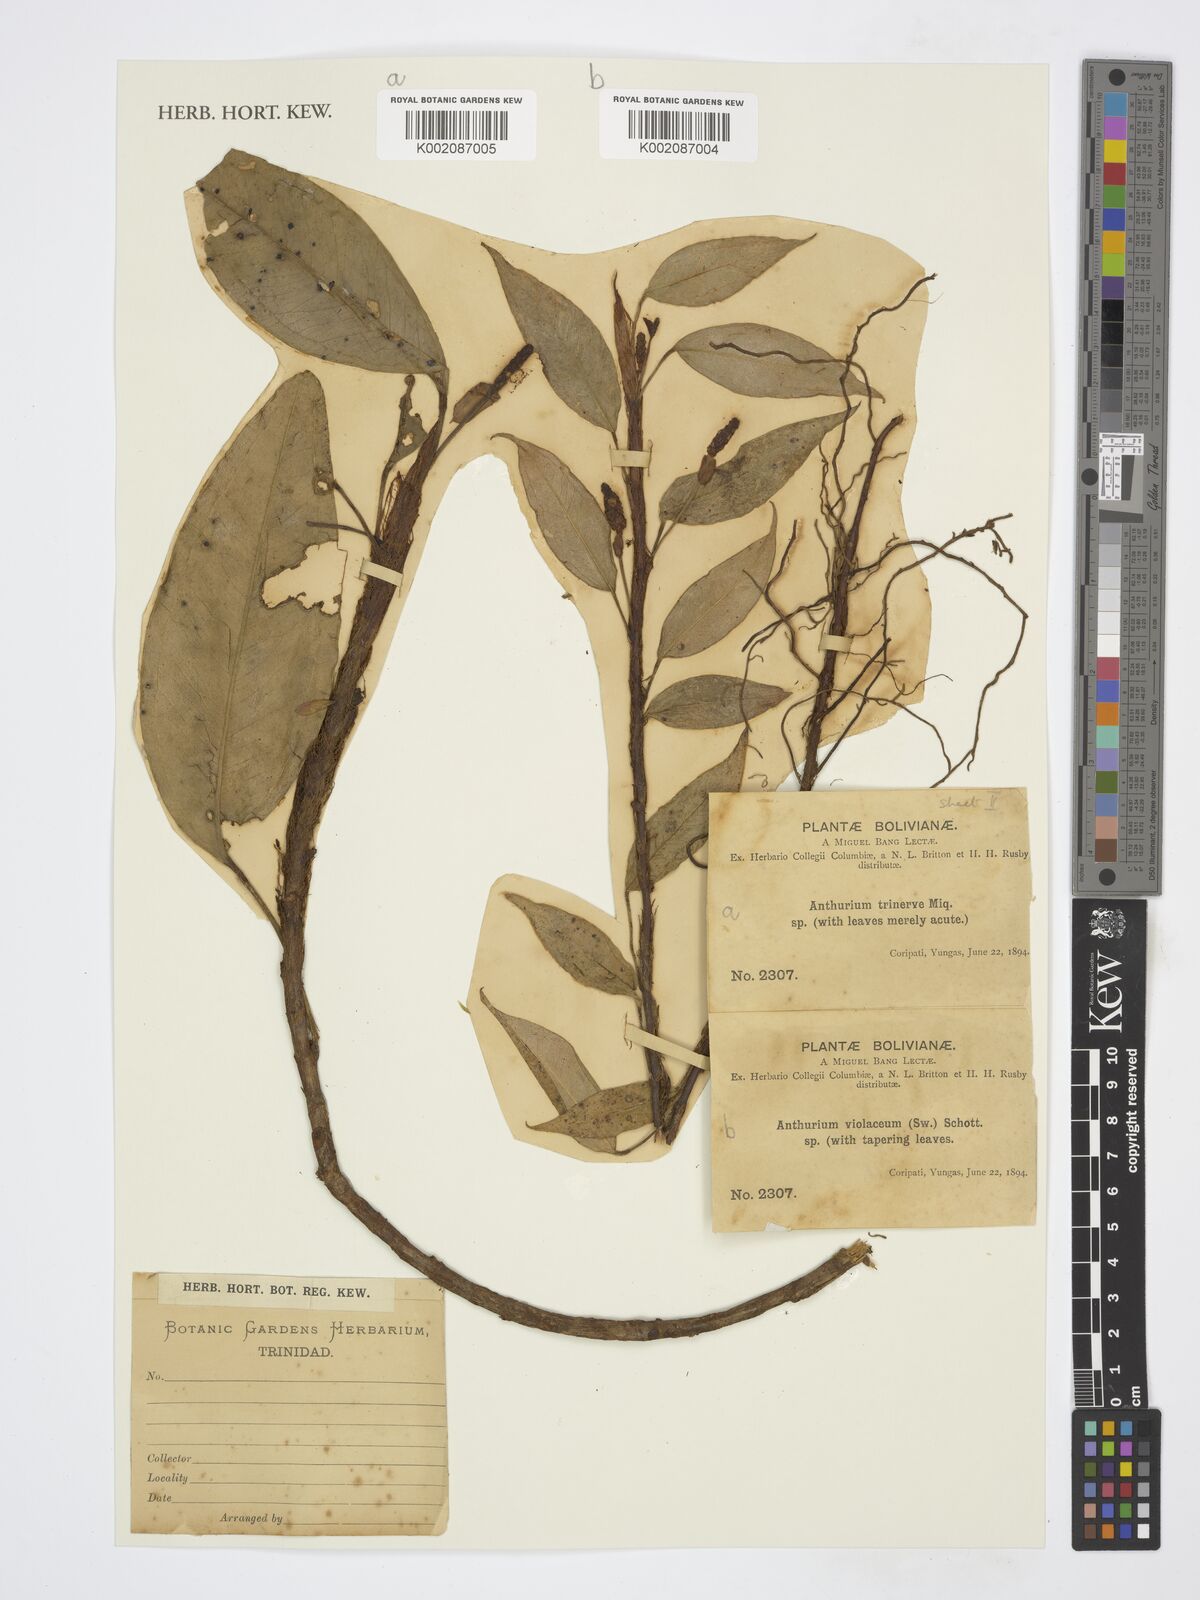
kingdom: Plantae
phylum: Tracheophyta
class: Liliopsida
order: Alismatales
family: Araceae
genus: Anthurium
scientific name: Anthurium obtusum
